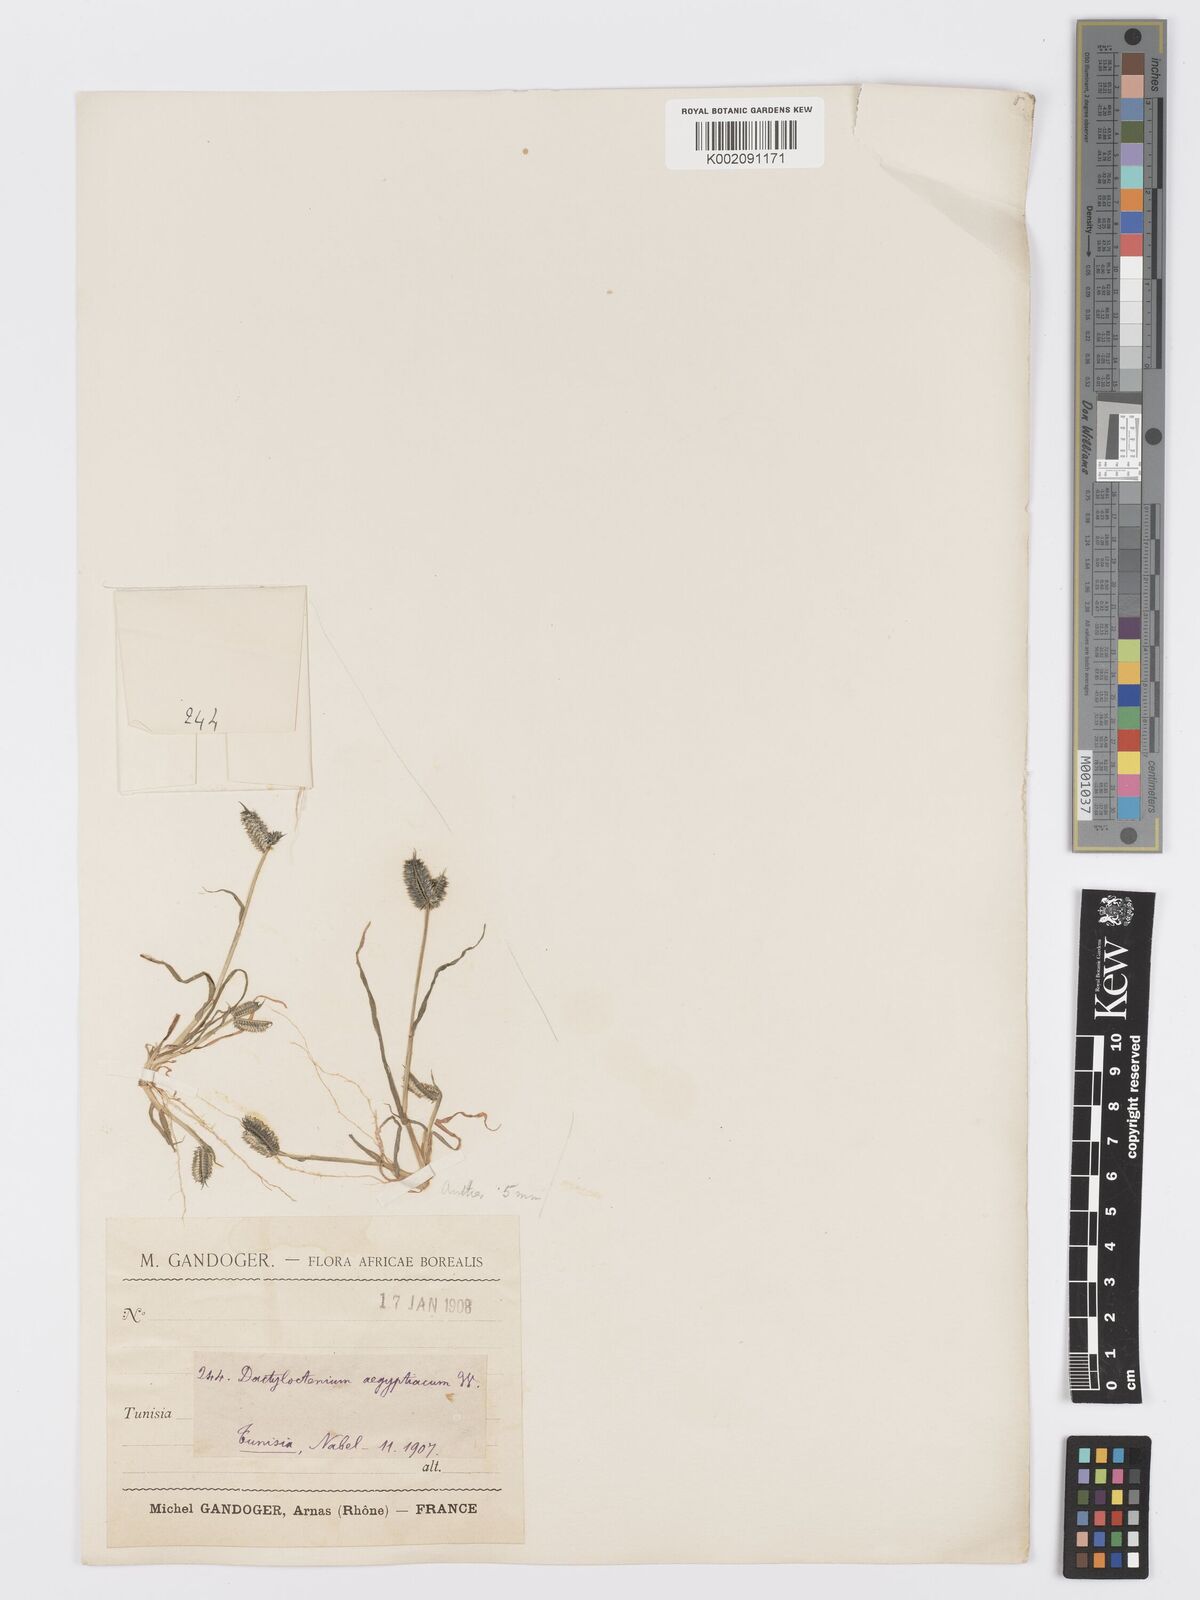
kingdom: Plantae
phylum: Tracheophyta
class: Liliopsida
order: Poales
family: Poaceae
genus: Dactyloctenium
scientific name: Dactyloctenium aegyptium
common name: Egyptian grass
